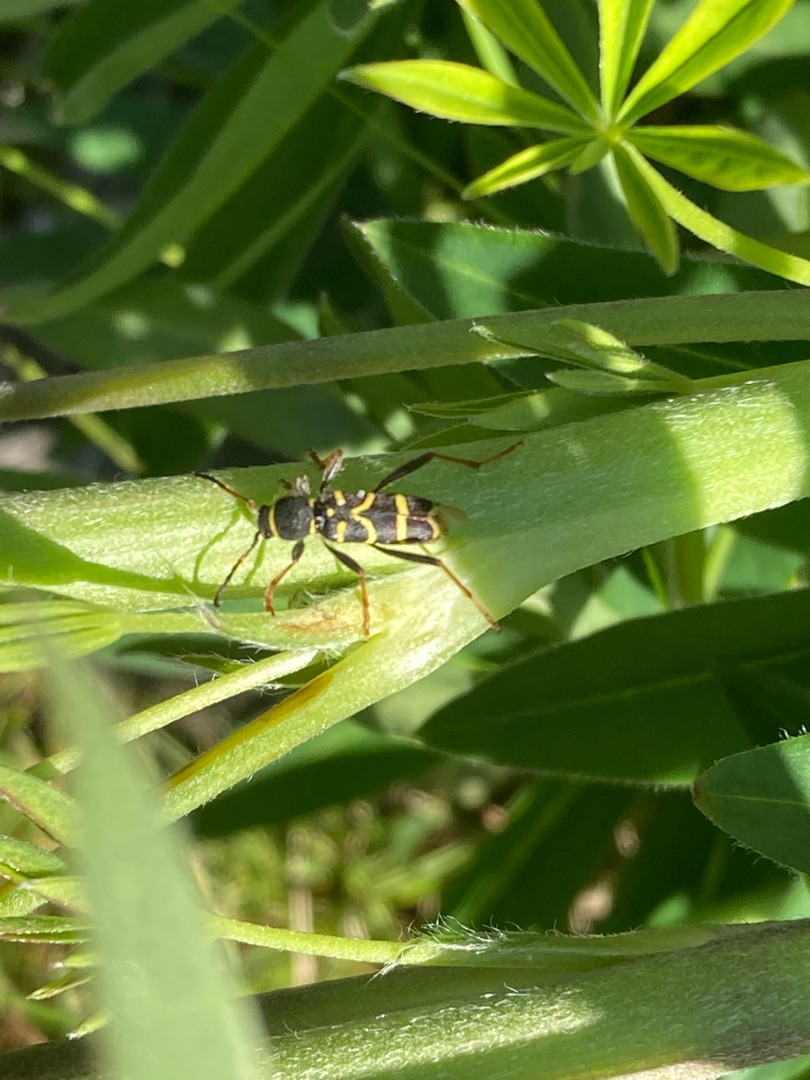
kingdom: Animalia
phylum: Arthropoda
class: Insecta
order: Coleoptera
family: Cerambycidae
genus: Clytus
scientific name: Clytus arietis
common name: Lille hvepsebuk
